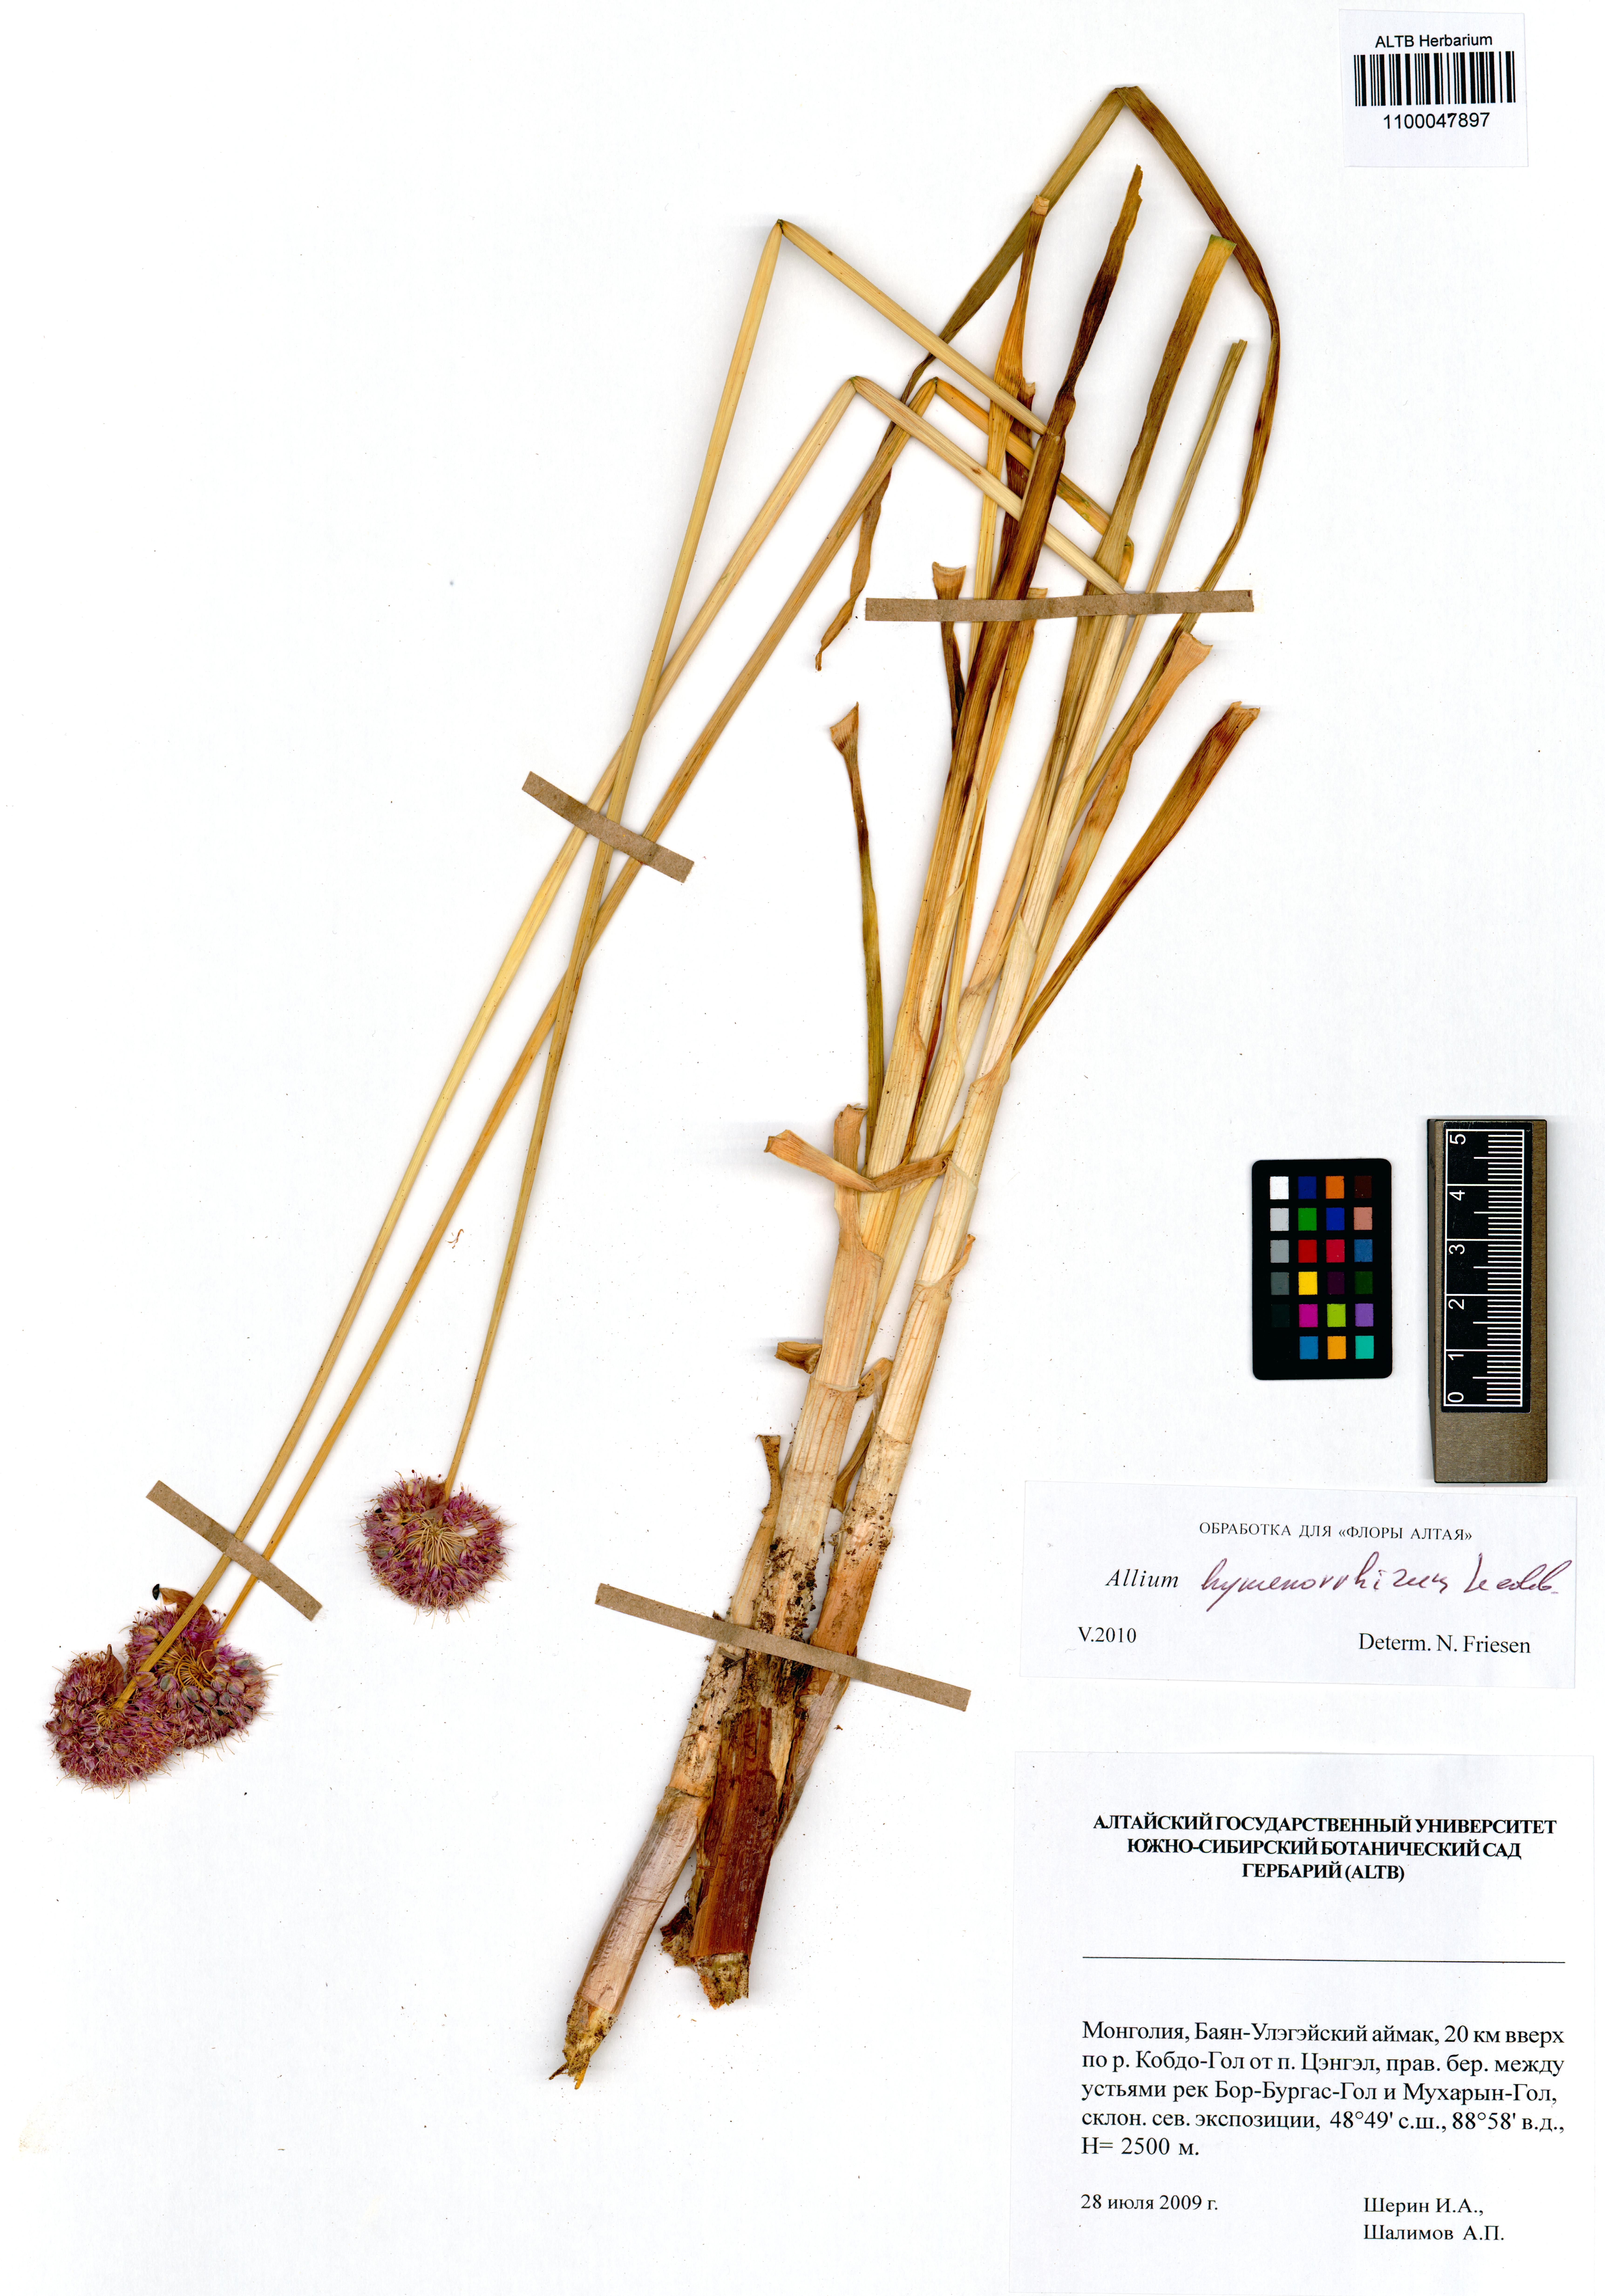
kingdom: Plantae
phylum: Tracheophyta
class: Liliopsida
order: Asparagales
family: Amaryllidaceae
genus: Allium
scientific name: Allium hymenorhizum
